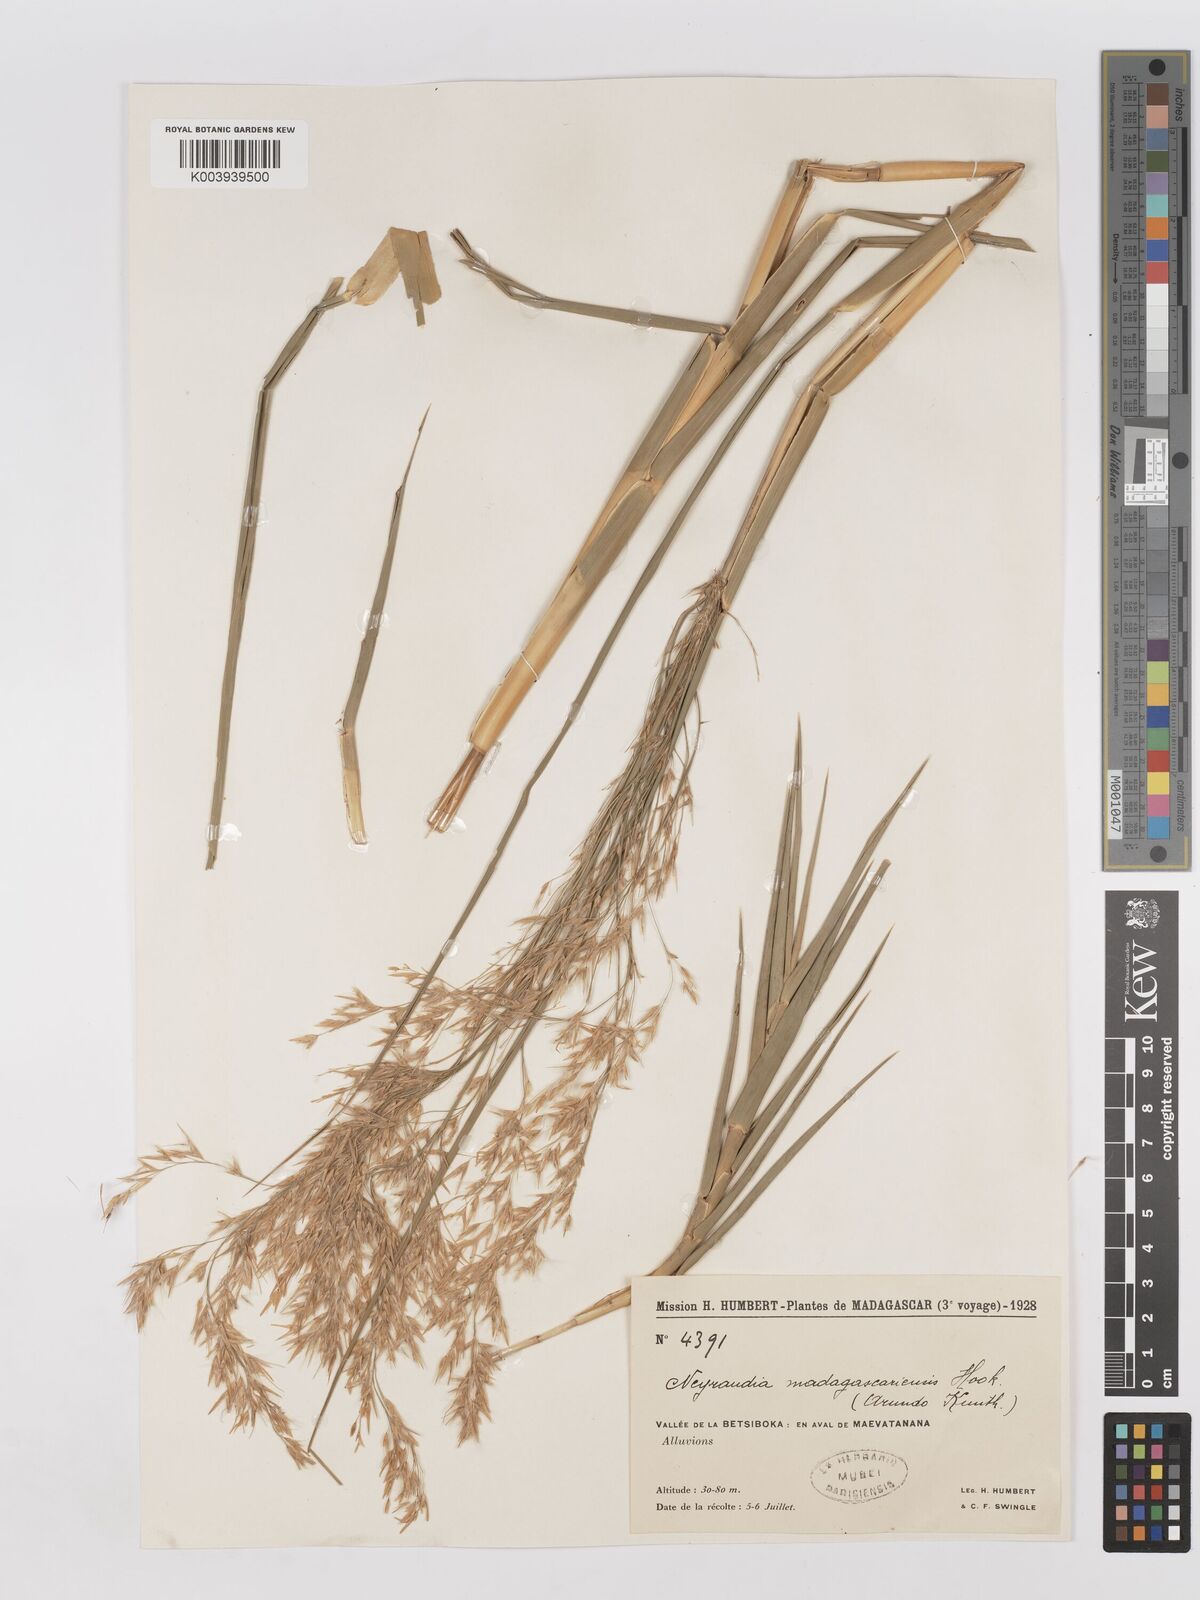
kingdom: Plantae
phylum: Tracheophyta
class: Liliopsida
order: Poales
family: Poaceae
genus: Phragmites
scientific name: Phragmites mauritianus
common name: Reed grass
